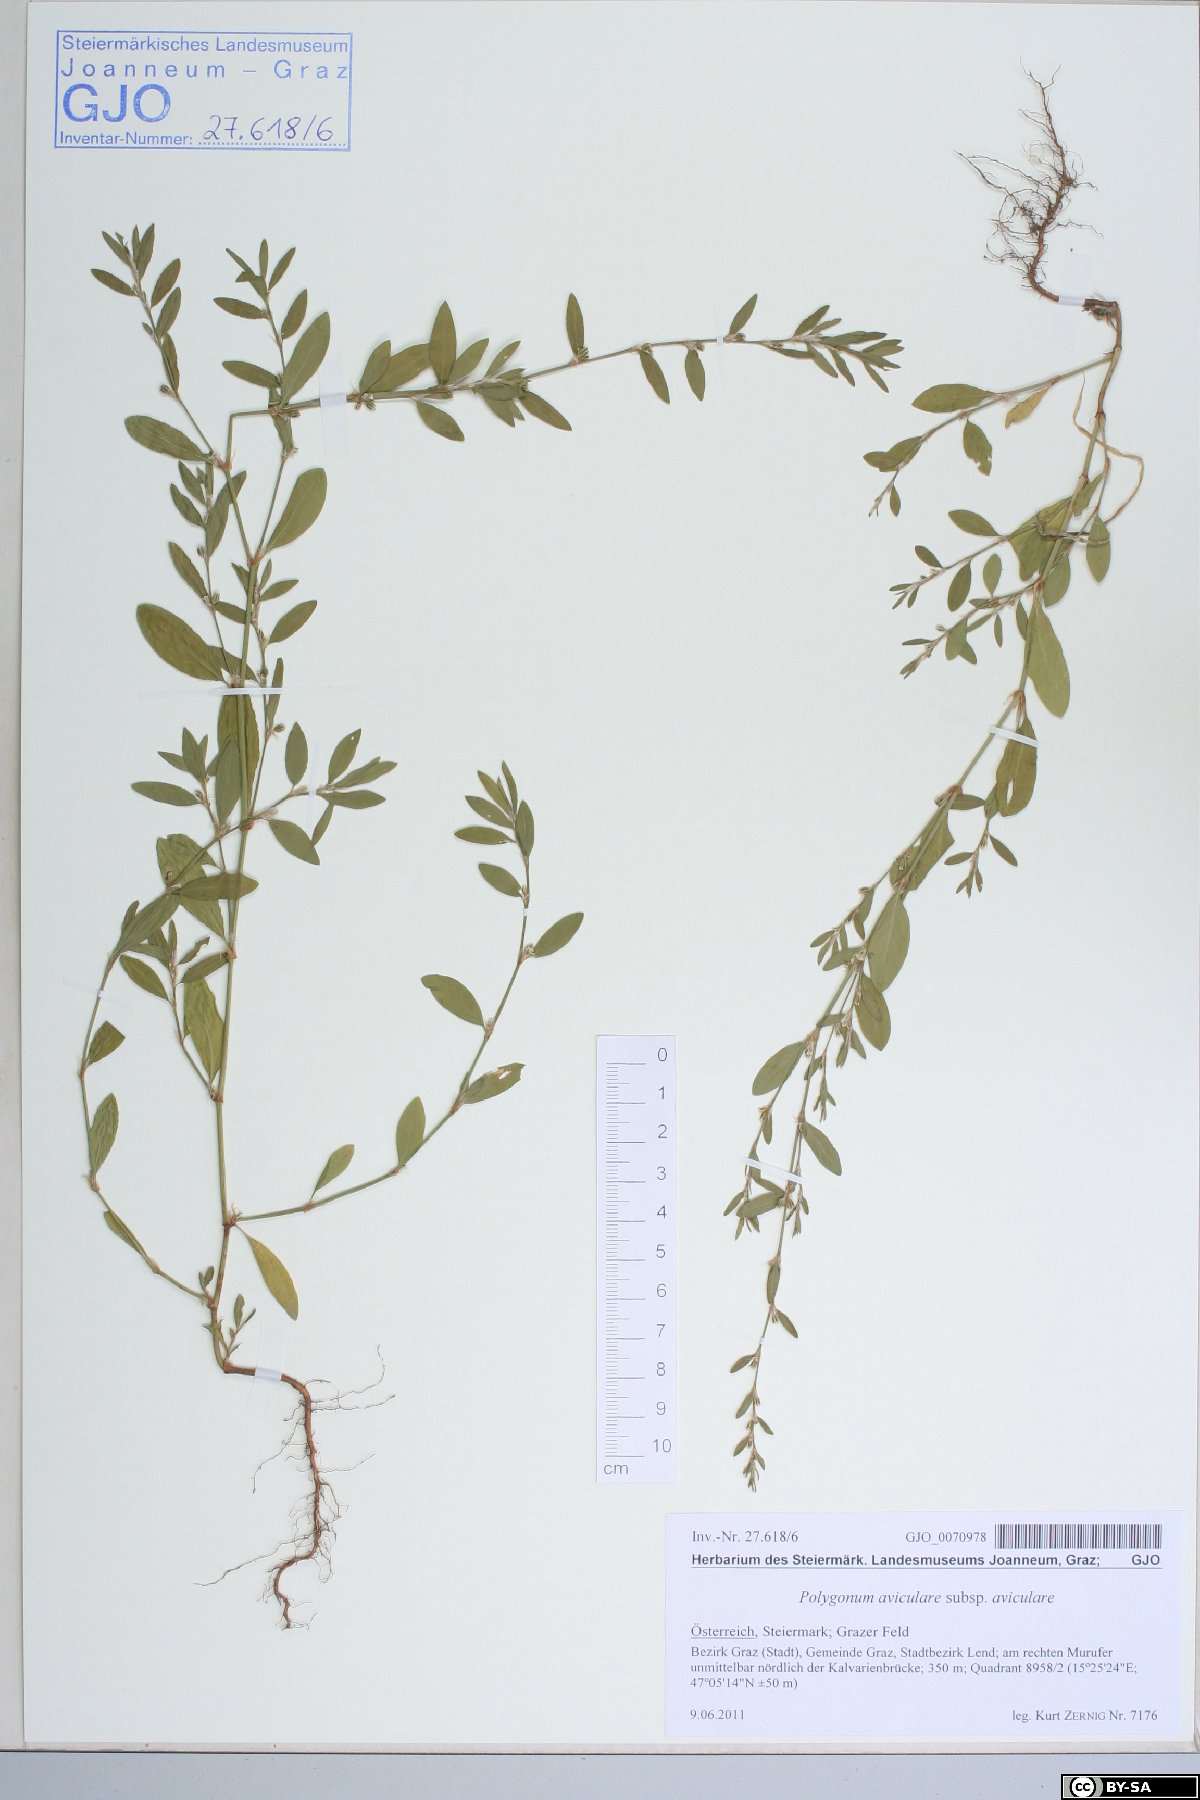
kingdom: Plantae
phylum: Tracheophyta
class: Magnoliopsida
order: Caryophyllales
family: Polygonaceae
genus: Polygonum
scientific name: Polygonum aviculare
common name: Prostrate knotweed
